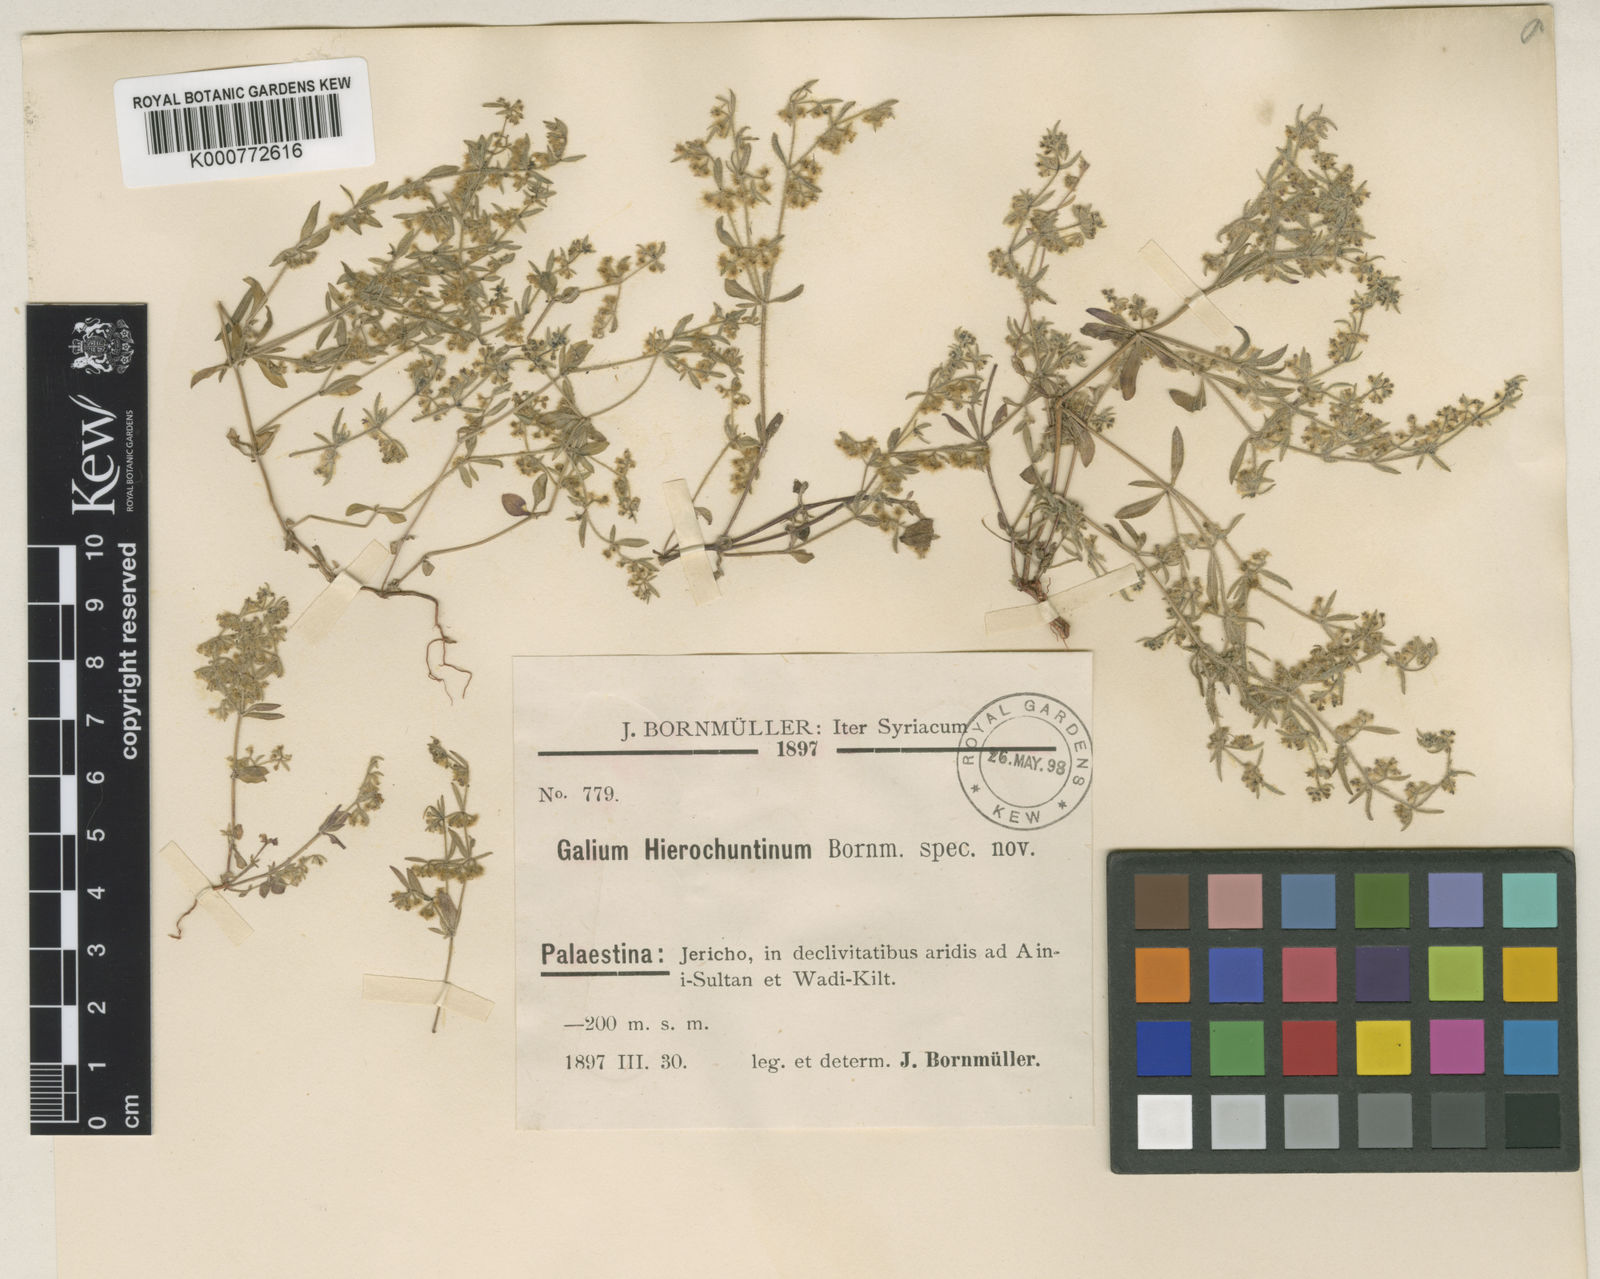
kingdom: Plantae
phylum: Tracheophyta
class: Magnoliopsida
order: Gentianales
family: Rubiaceae
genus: Galium
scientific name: Galium hierochuntinum
